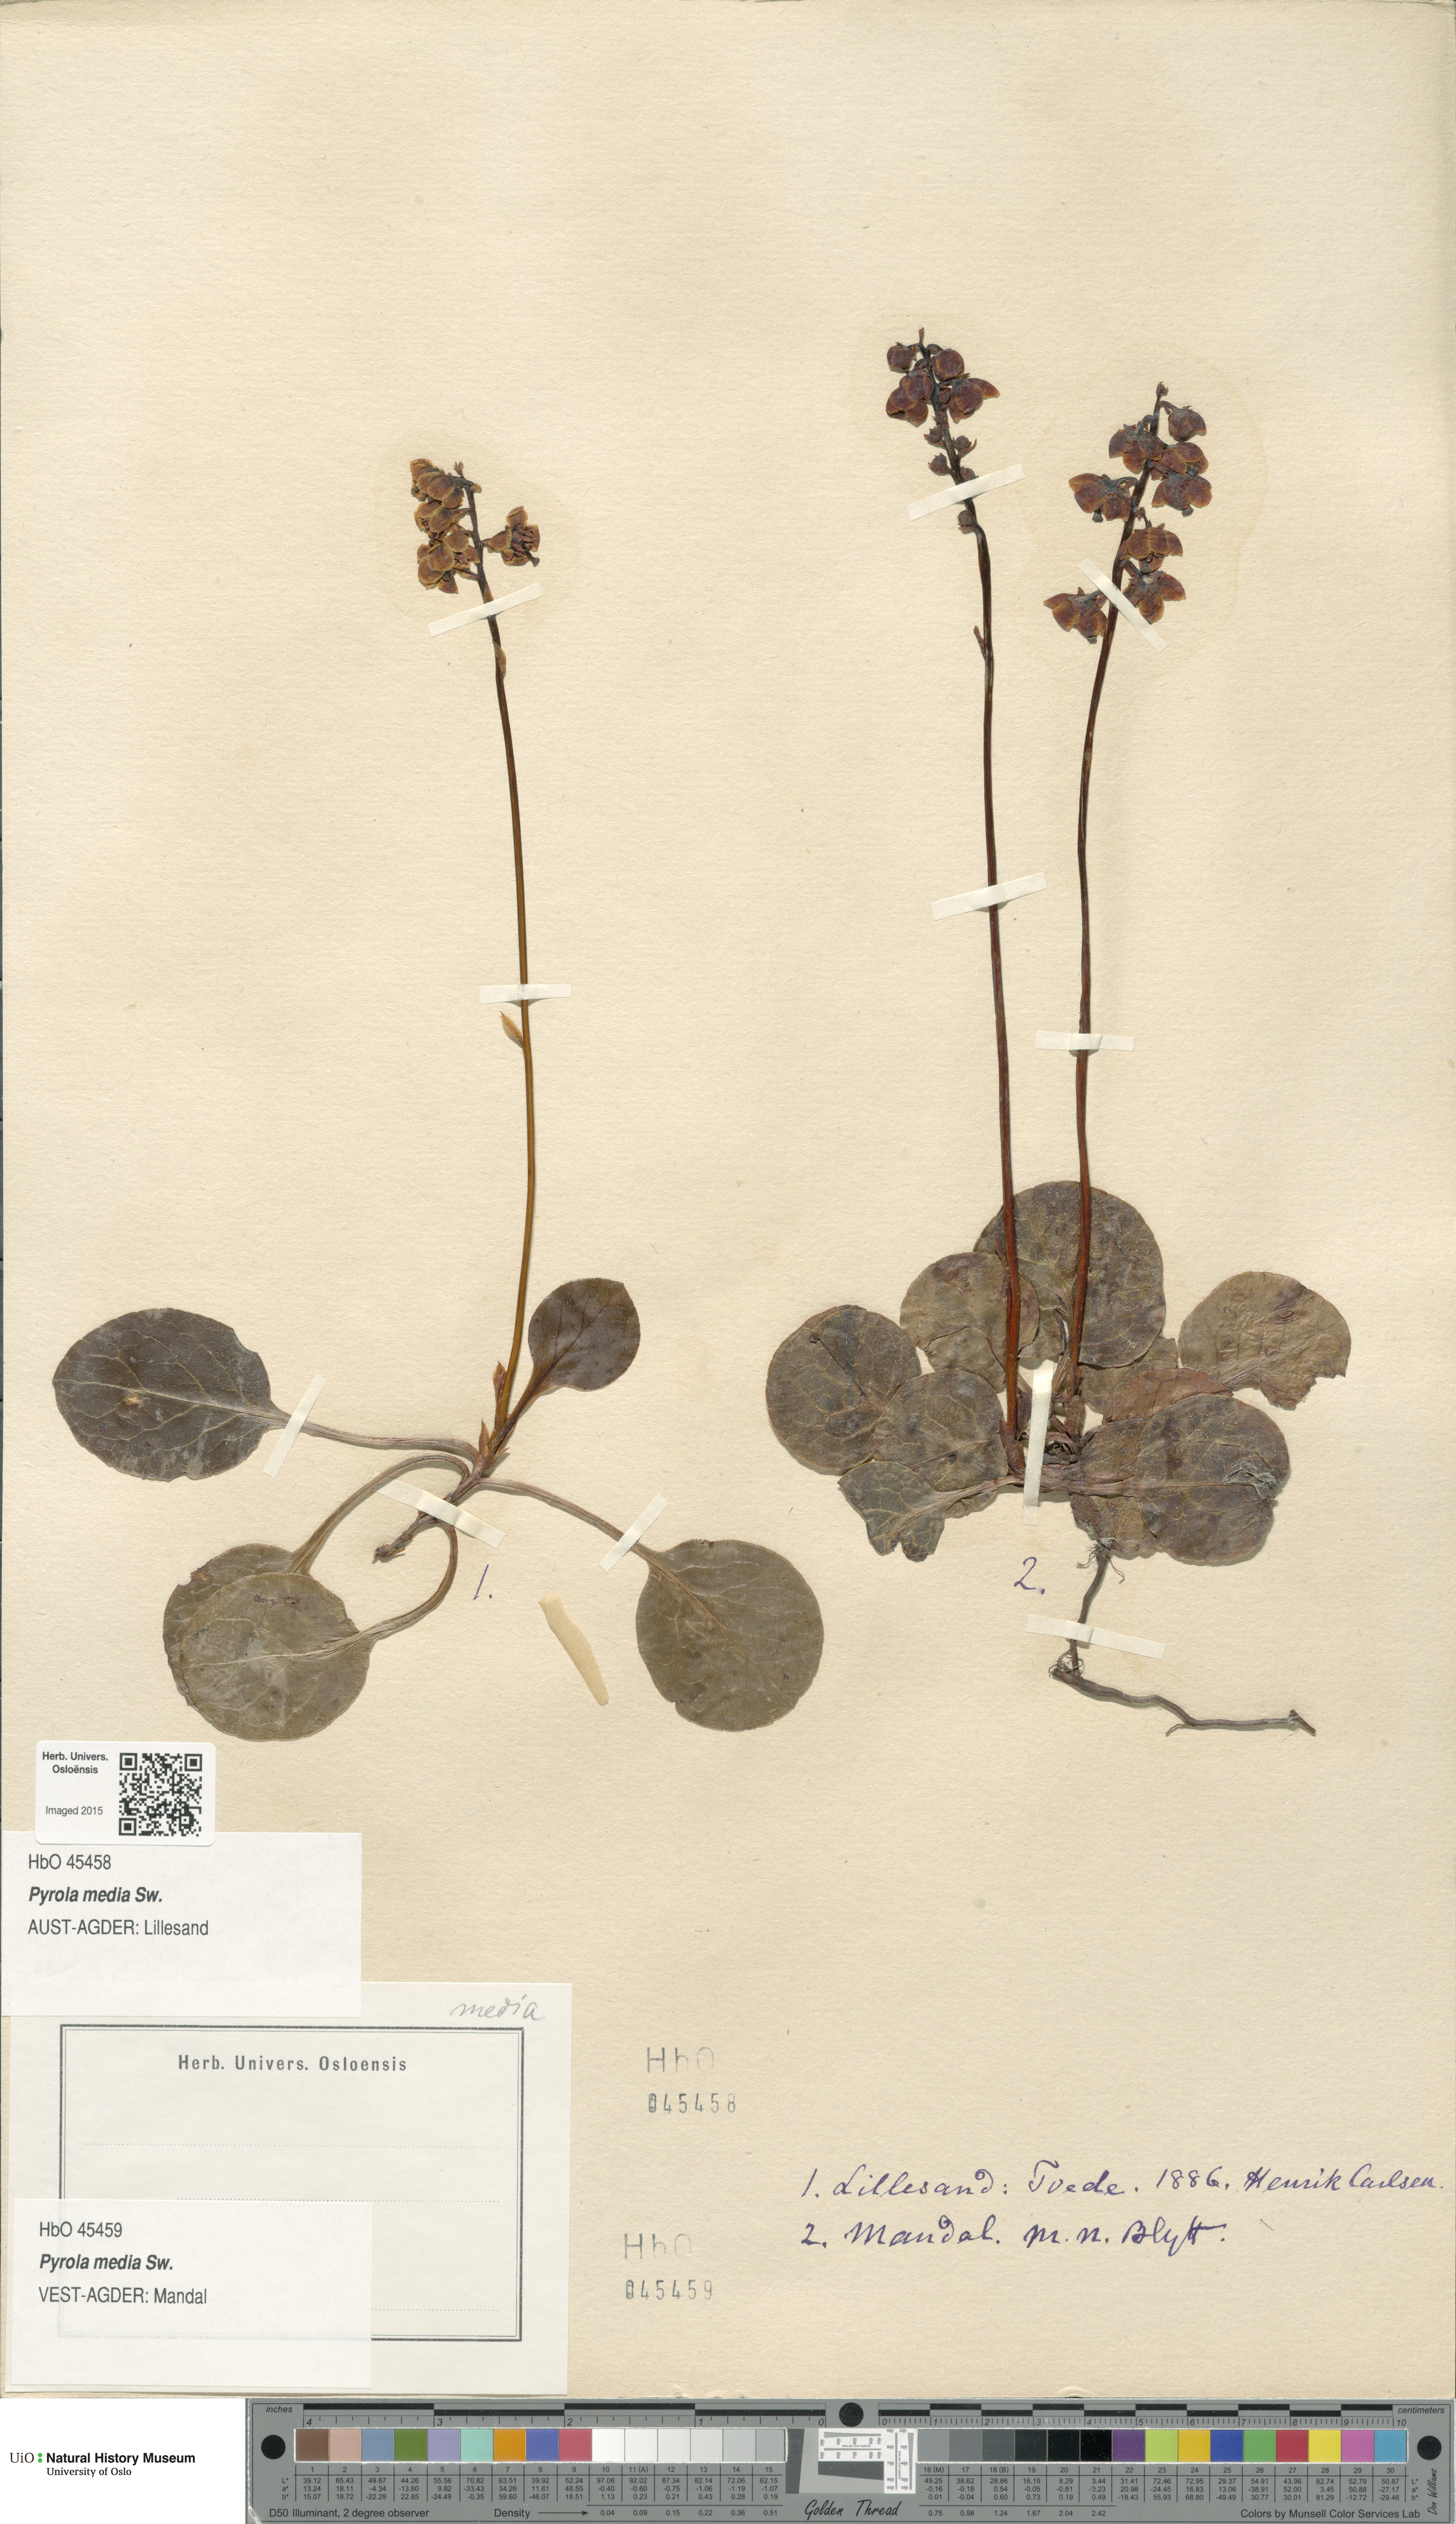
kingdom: Plantae
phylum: Tracheophyta
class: Magnoliopsida
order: Ericales
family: Ericaceae
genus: Pyrola
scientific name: Pyrola media
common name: Intermediate wintergreen
